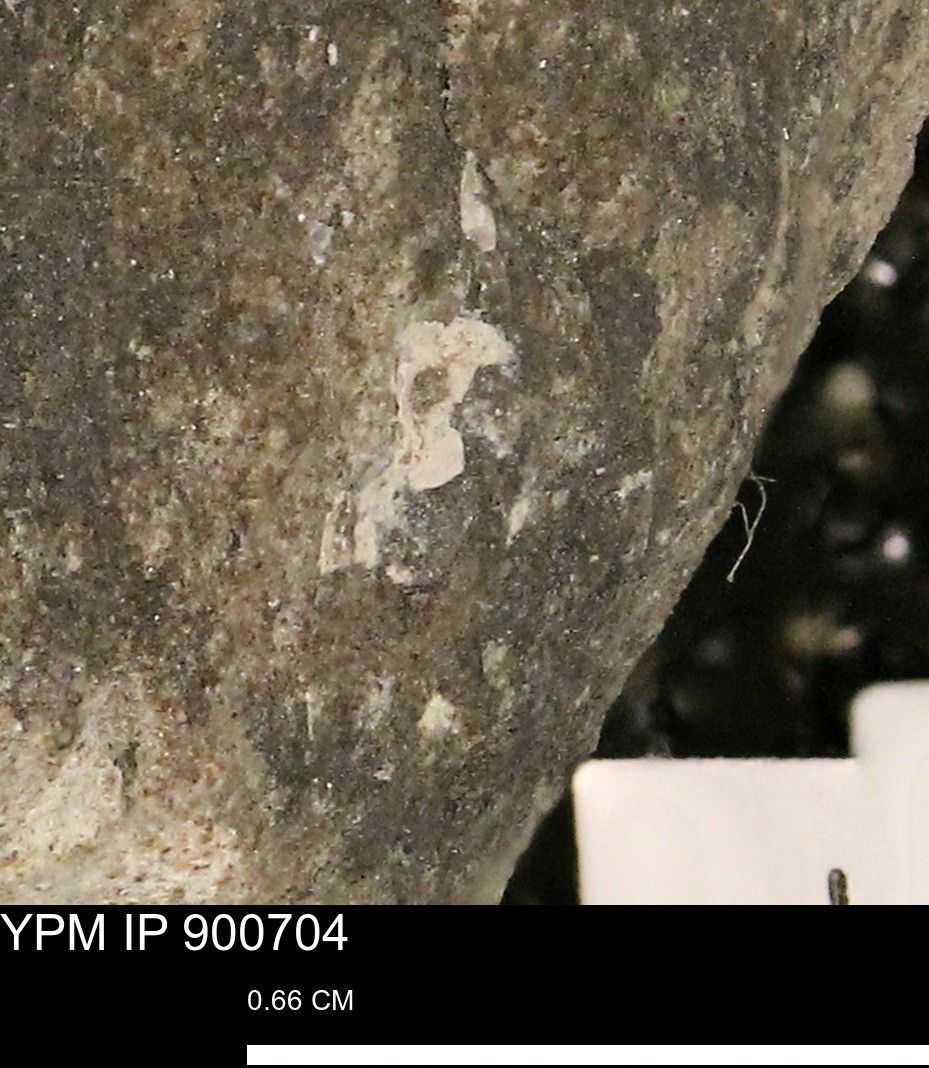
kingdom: Animalia
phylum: Mollusca
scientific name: Mollusca
